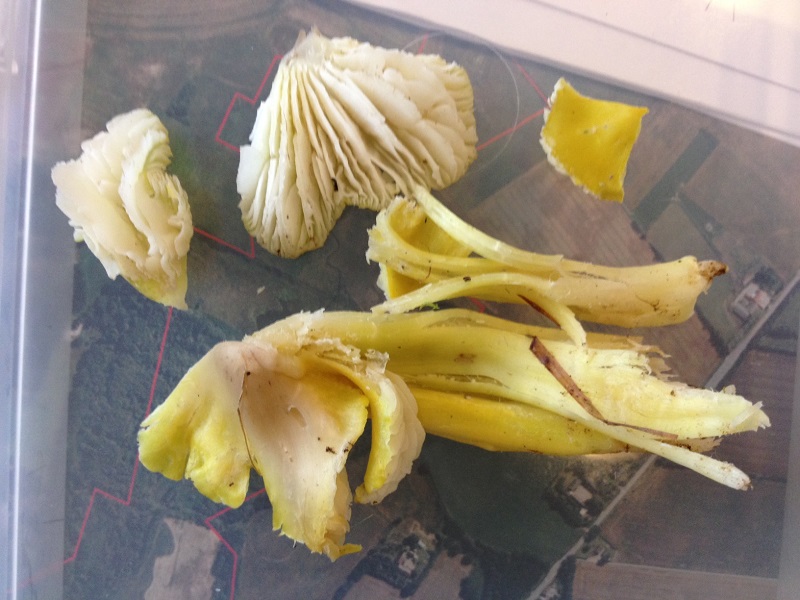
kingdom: Fungi
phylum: Basidiomycota
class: Agaricomycetes
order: Agaricales
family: Hygrophoraceae
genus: Hygrocybe
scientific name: Hygrocybe citrinovirens
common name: grøngul vokshat
